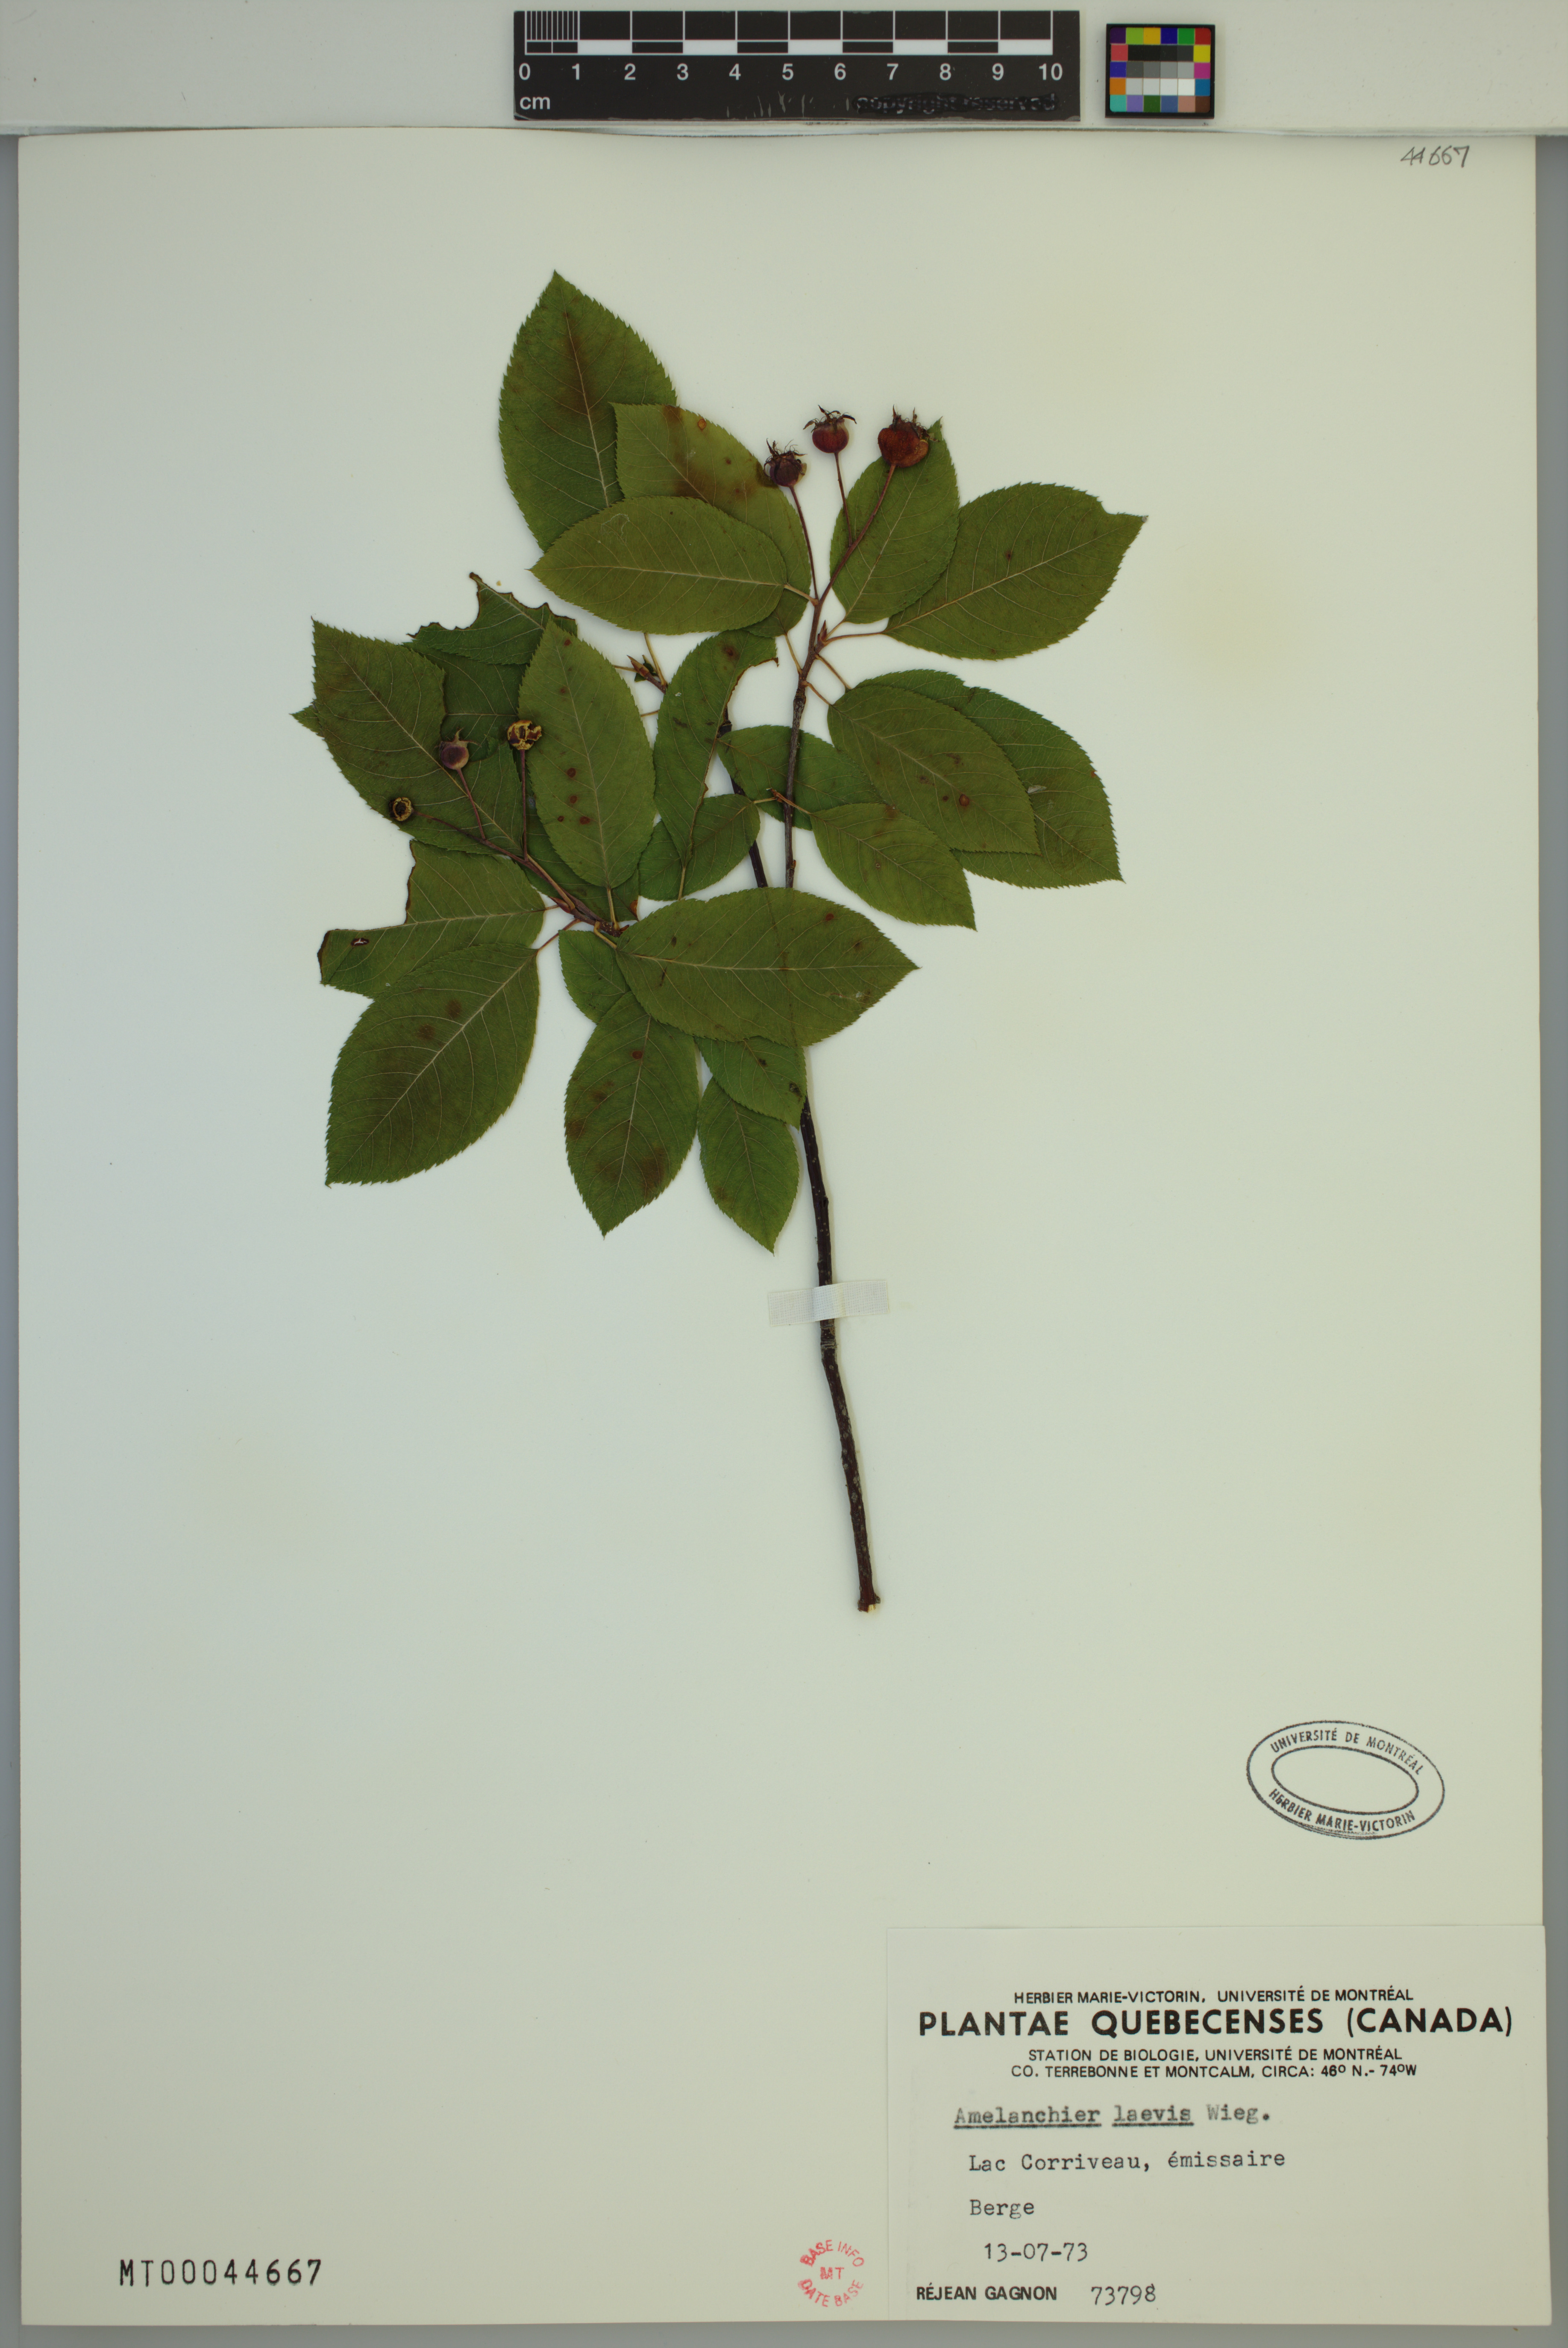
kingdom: Plantae
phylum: Tracheophyta
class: Magnoliopsida
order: Rosales
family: Rosaceae
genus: Amelanchier
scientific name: Amelanchier laevis
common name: Allegheny serviceberry
